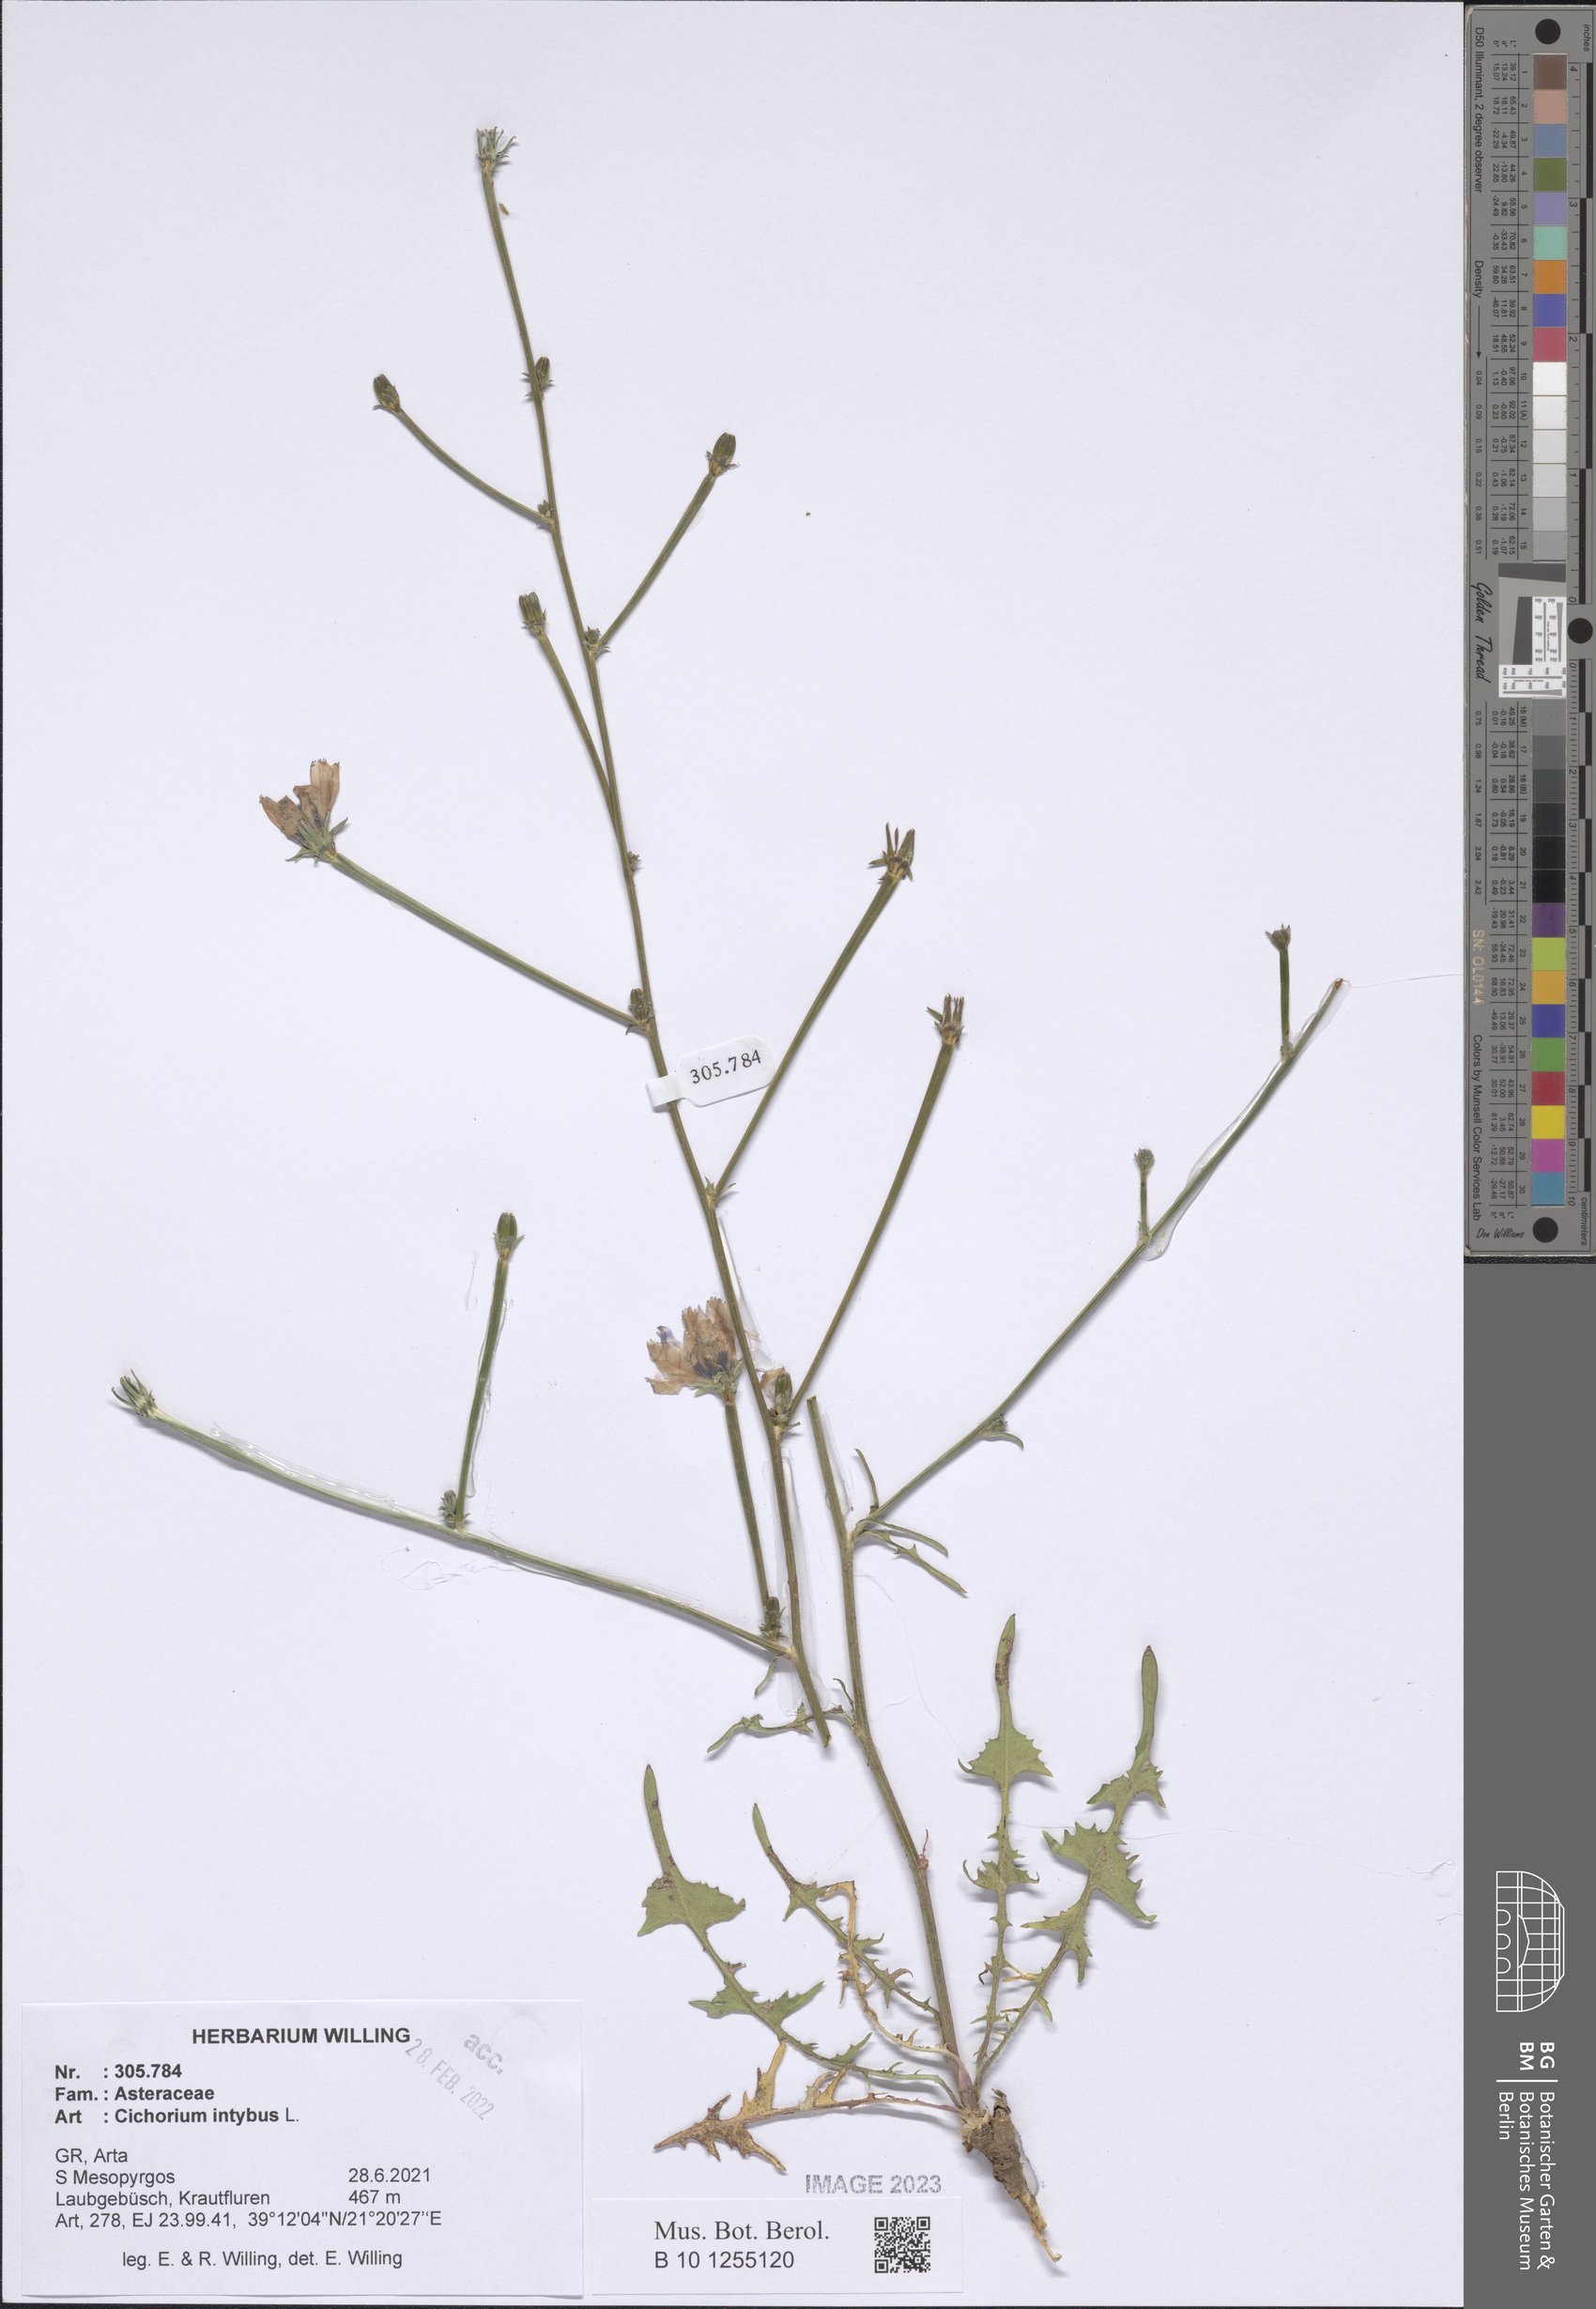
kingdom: Plantae
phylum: Tracheophyta
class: Magnoliopsida
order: Asterales
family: Asteraceae
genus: Cichorium
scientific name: Cichorium intybus
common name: Chicory
